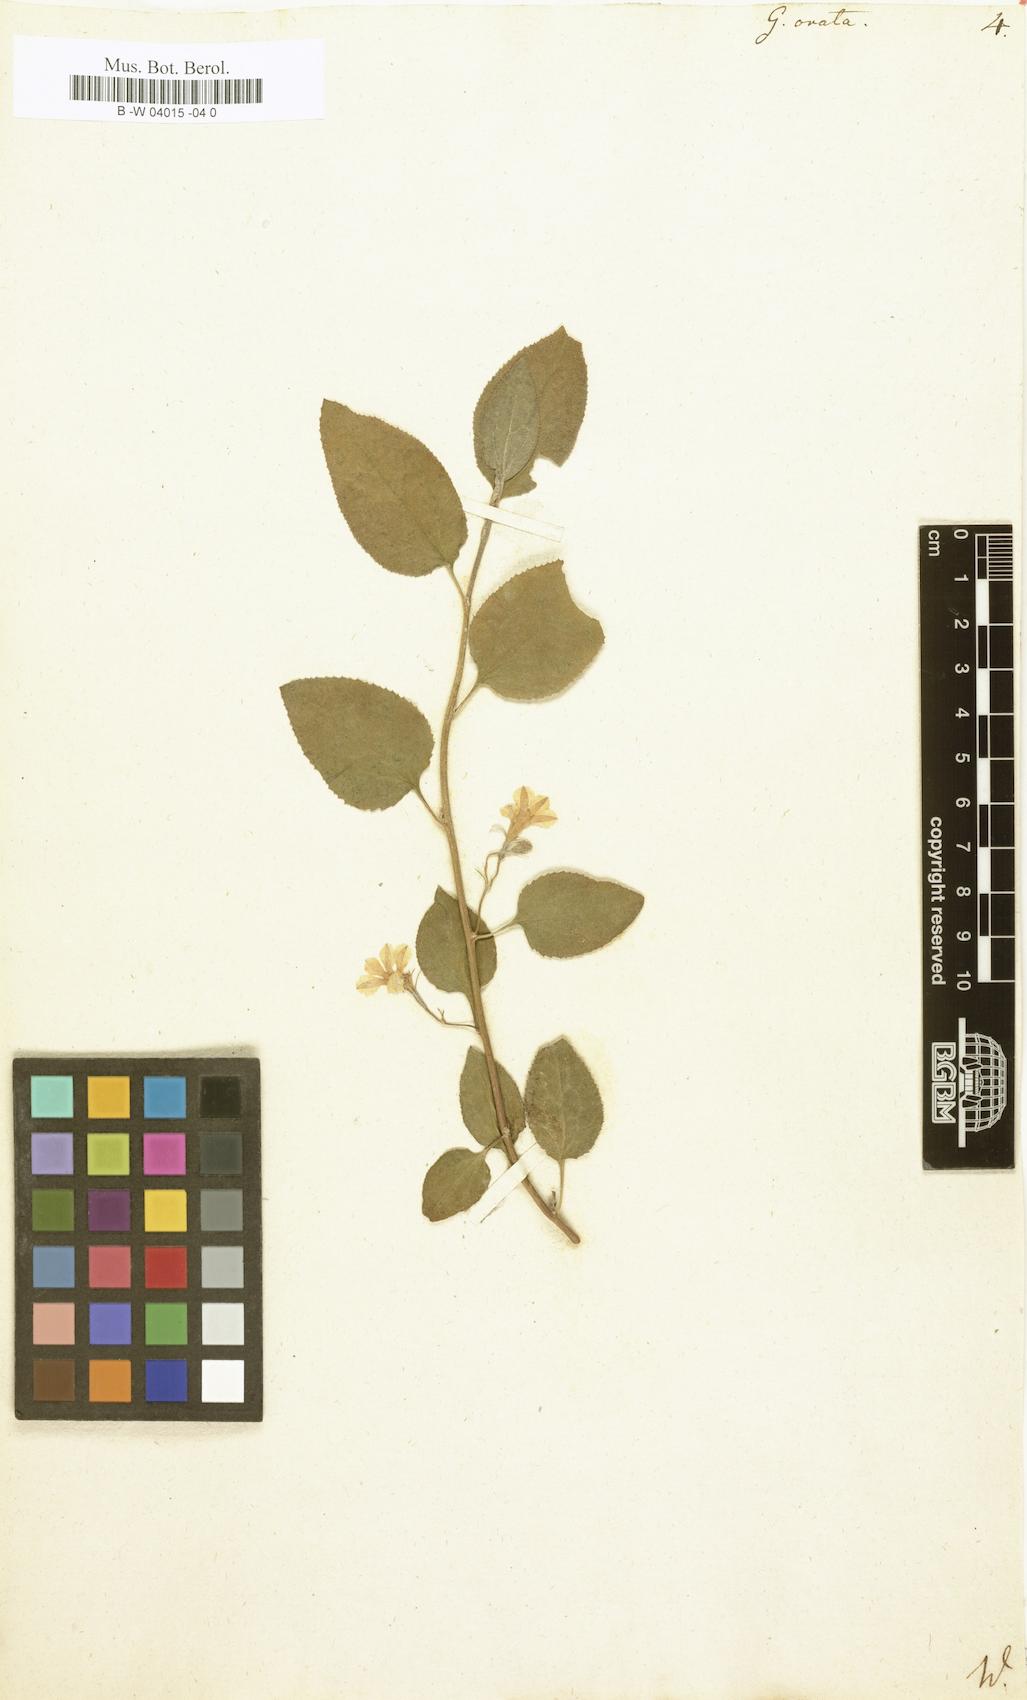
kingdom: Plantae
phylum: Tracheophyta
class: Magnoliopsida
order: Asterales
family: Goodeniaceae
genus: Goodenia
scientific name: Goodenia ovata
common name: Hop goodenia
